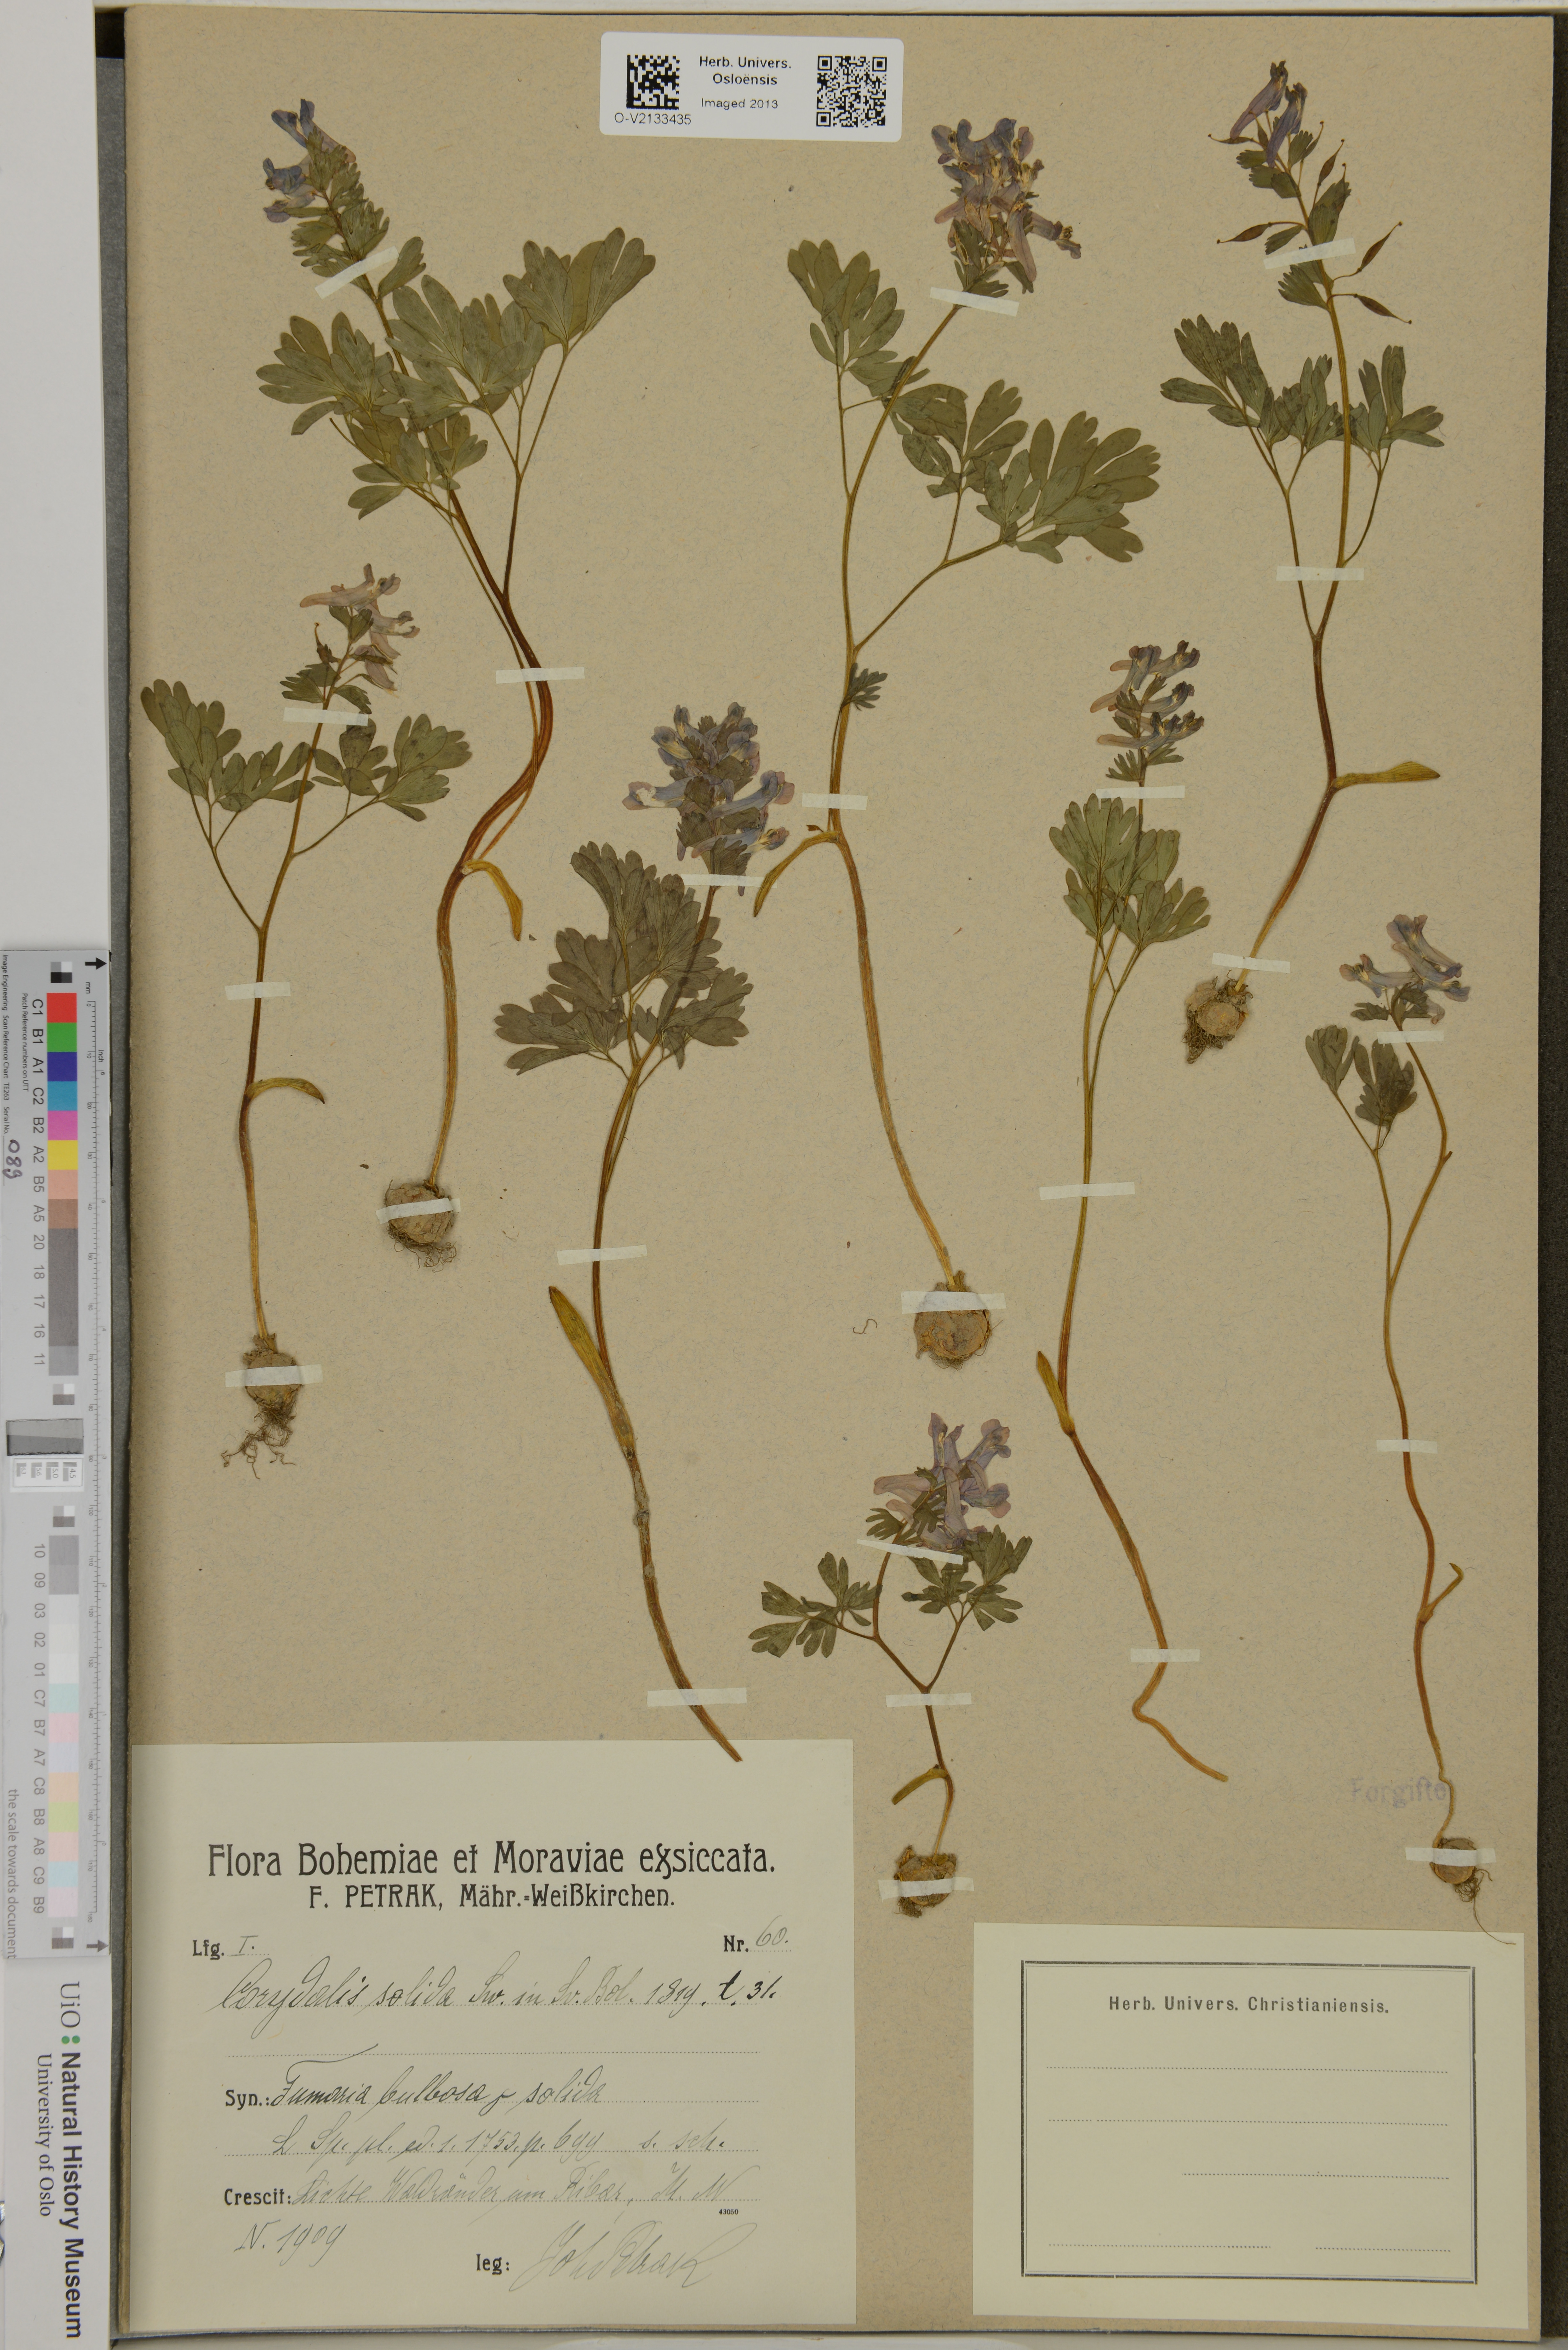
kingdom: Plantae
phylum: Tracheophyta
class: Magnoliopsida
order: Ranunculales
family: Papaveraceae
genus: Corydalis
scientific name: Corydalis solida
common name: Bird-in-a-bush
